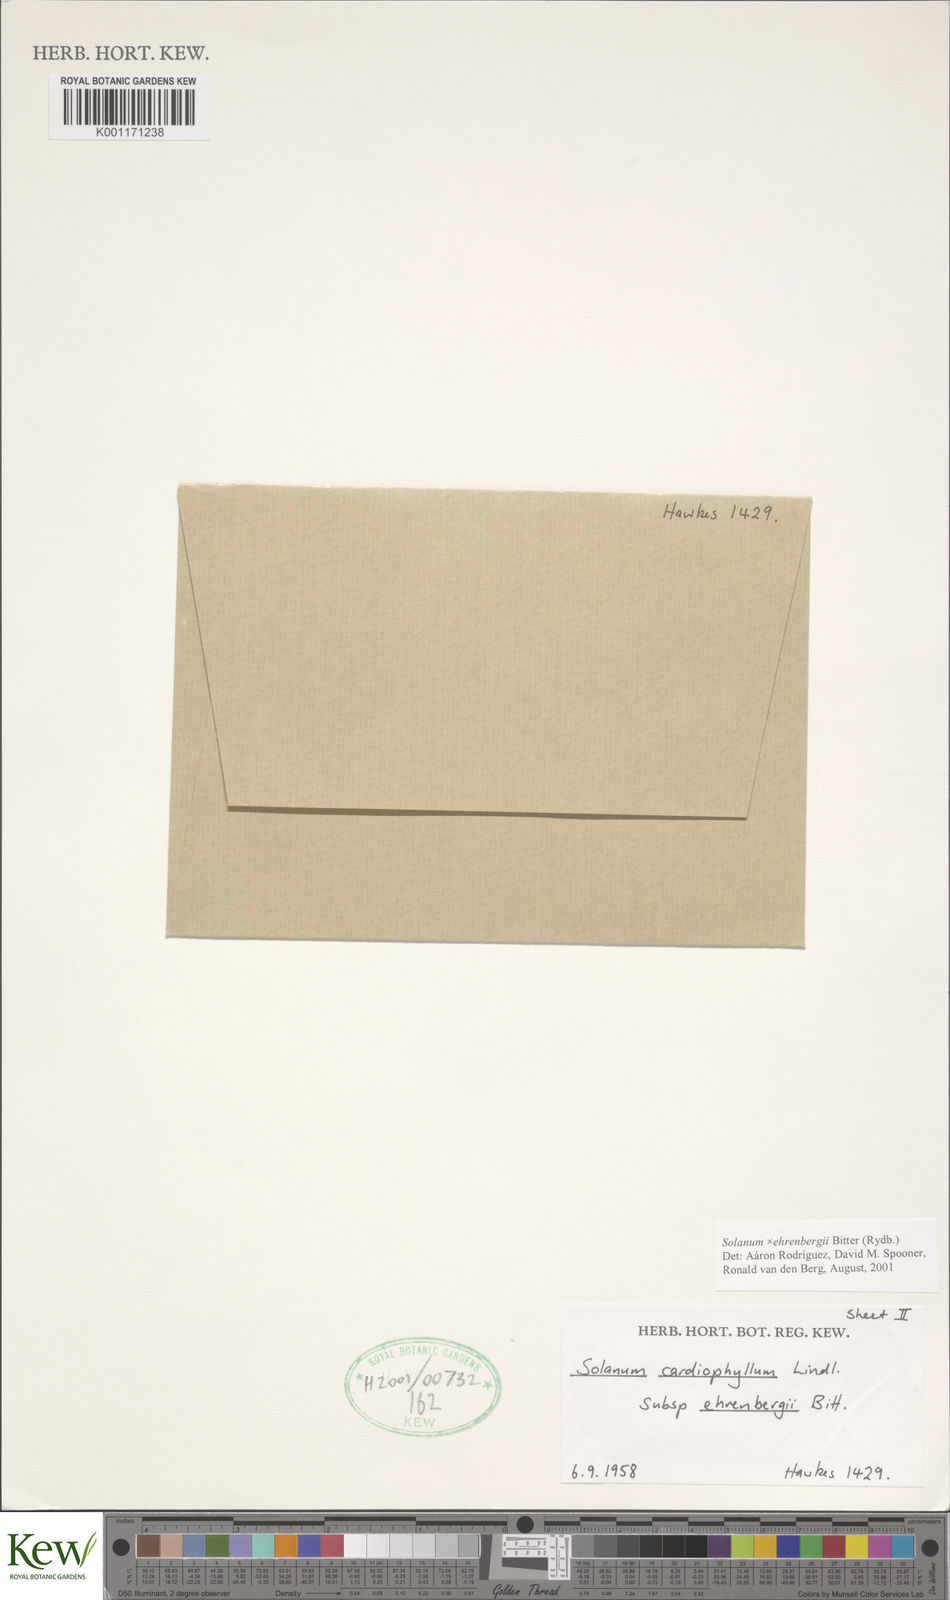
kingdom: Plantae
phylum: Tracheophyta
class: Magnoliopsida
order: Solanales
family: Solanaceae
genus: Solanum
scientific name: Solanum edinense
